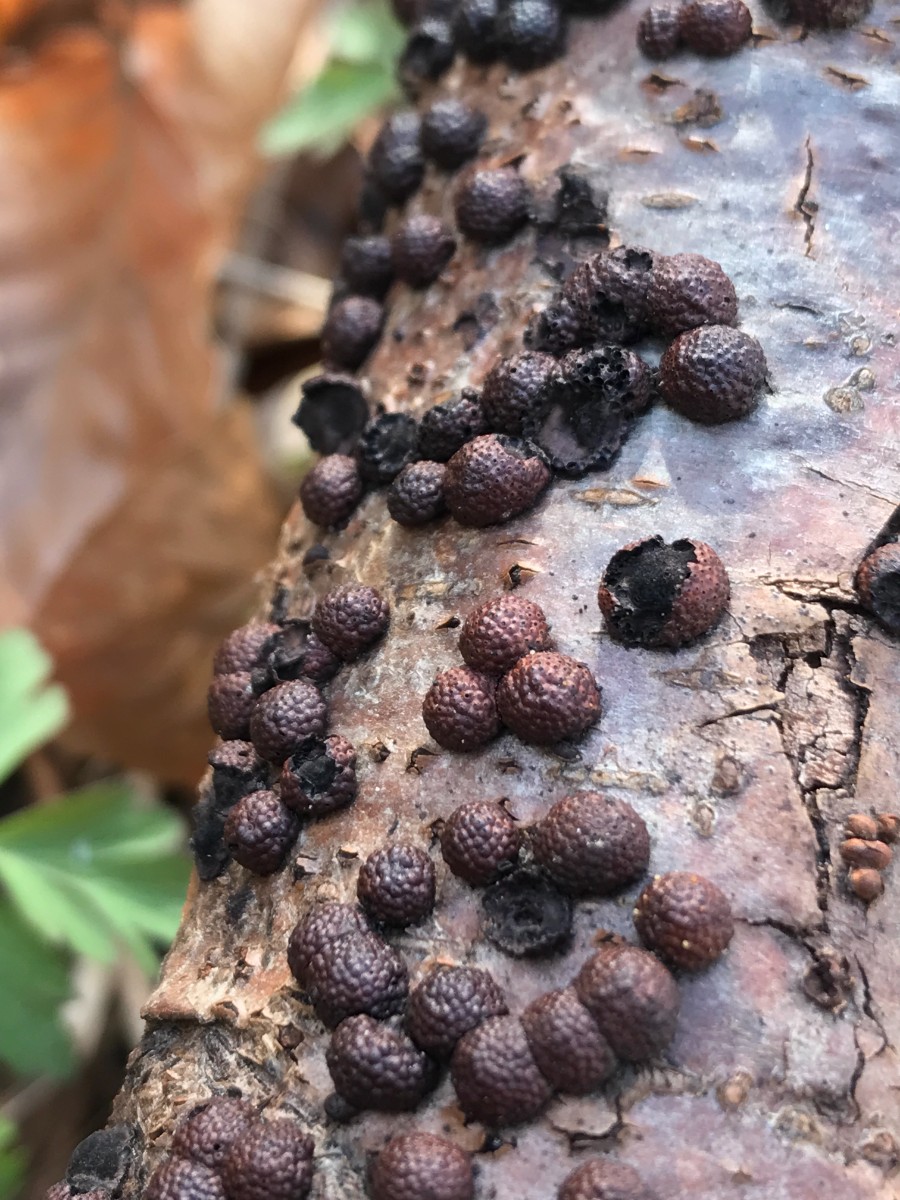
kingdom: Fungi
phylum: Ascomycota
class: Sordariomycetes
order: Xylariales
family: Hypoxylaceae
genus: Hypoxylon
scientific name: Hypoxylon fragiforme
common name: kuljordbær
